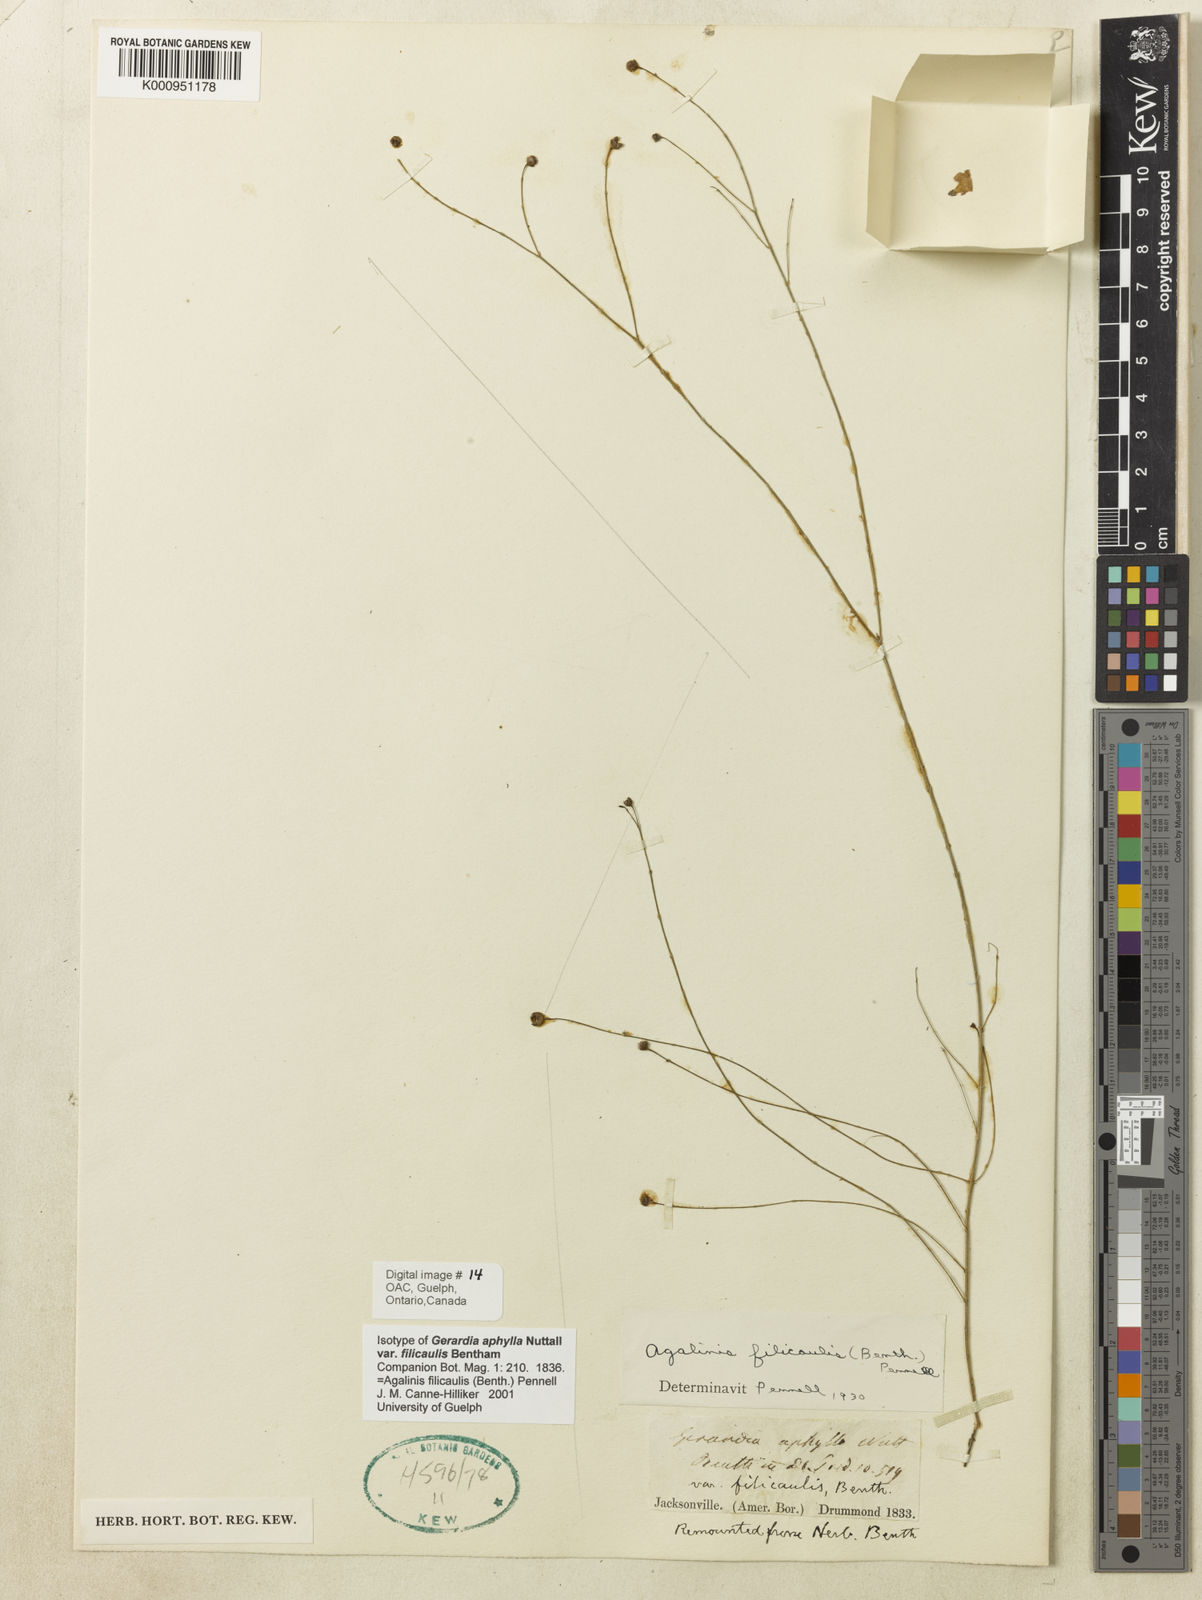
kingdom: Plantae
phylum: Tracheophyta
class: Magnoliopsida
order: Lamiales
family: Orobanchaceae
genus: Agalinis
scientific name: Agalinis filicaulis
